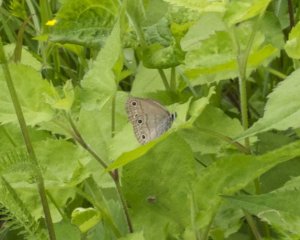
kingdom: Animalia
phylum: Arthropoda
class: Insecta
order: Lepidoptera
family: Nymphalidae
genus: Euptychia
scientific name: Euptychia cymela
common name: Little Wood Satyr
